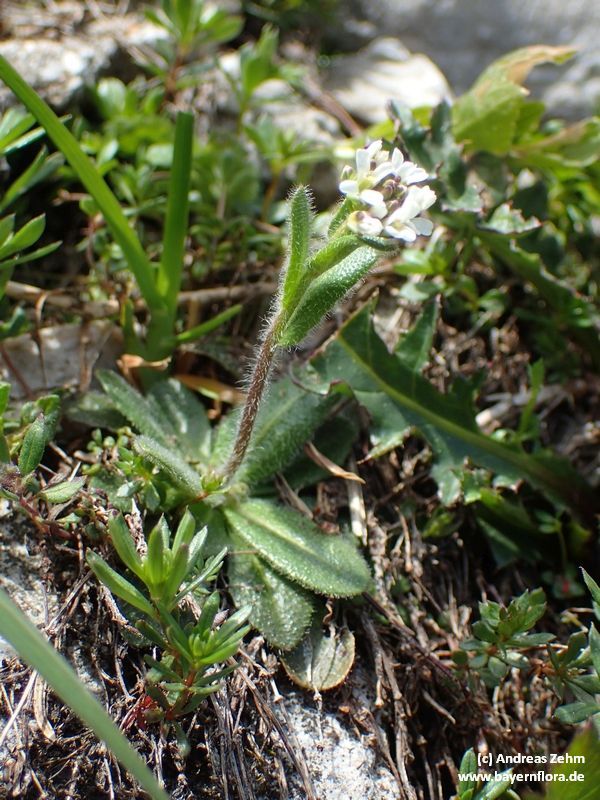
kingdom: Plantae
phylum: Tracheophyta
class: Magnoliopsida
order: Brassicales
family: Brassicaceae
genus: Arabis
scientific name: Arabis ciliata
